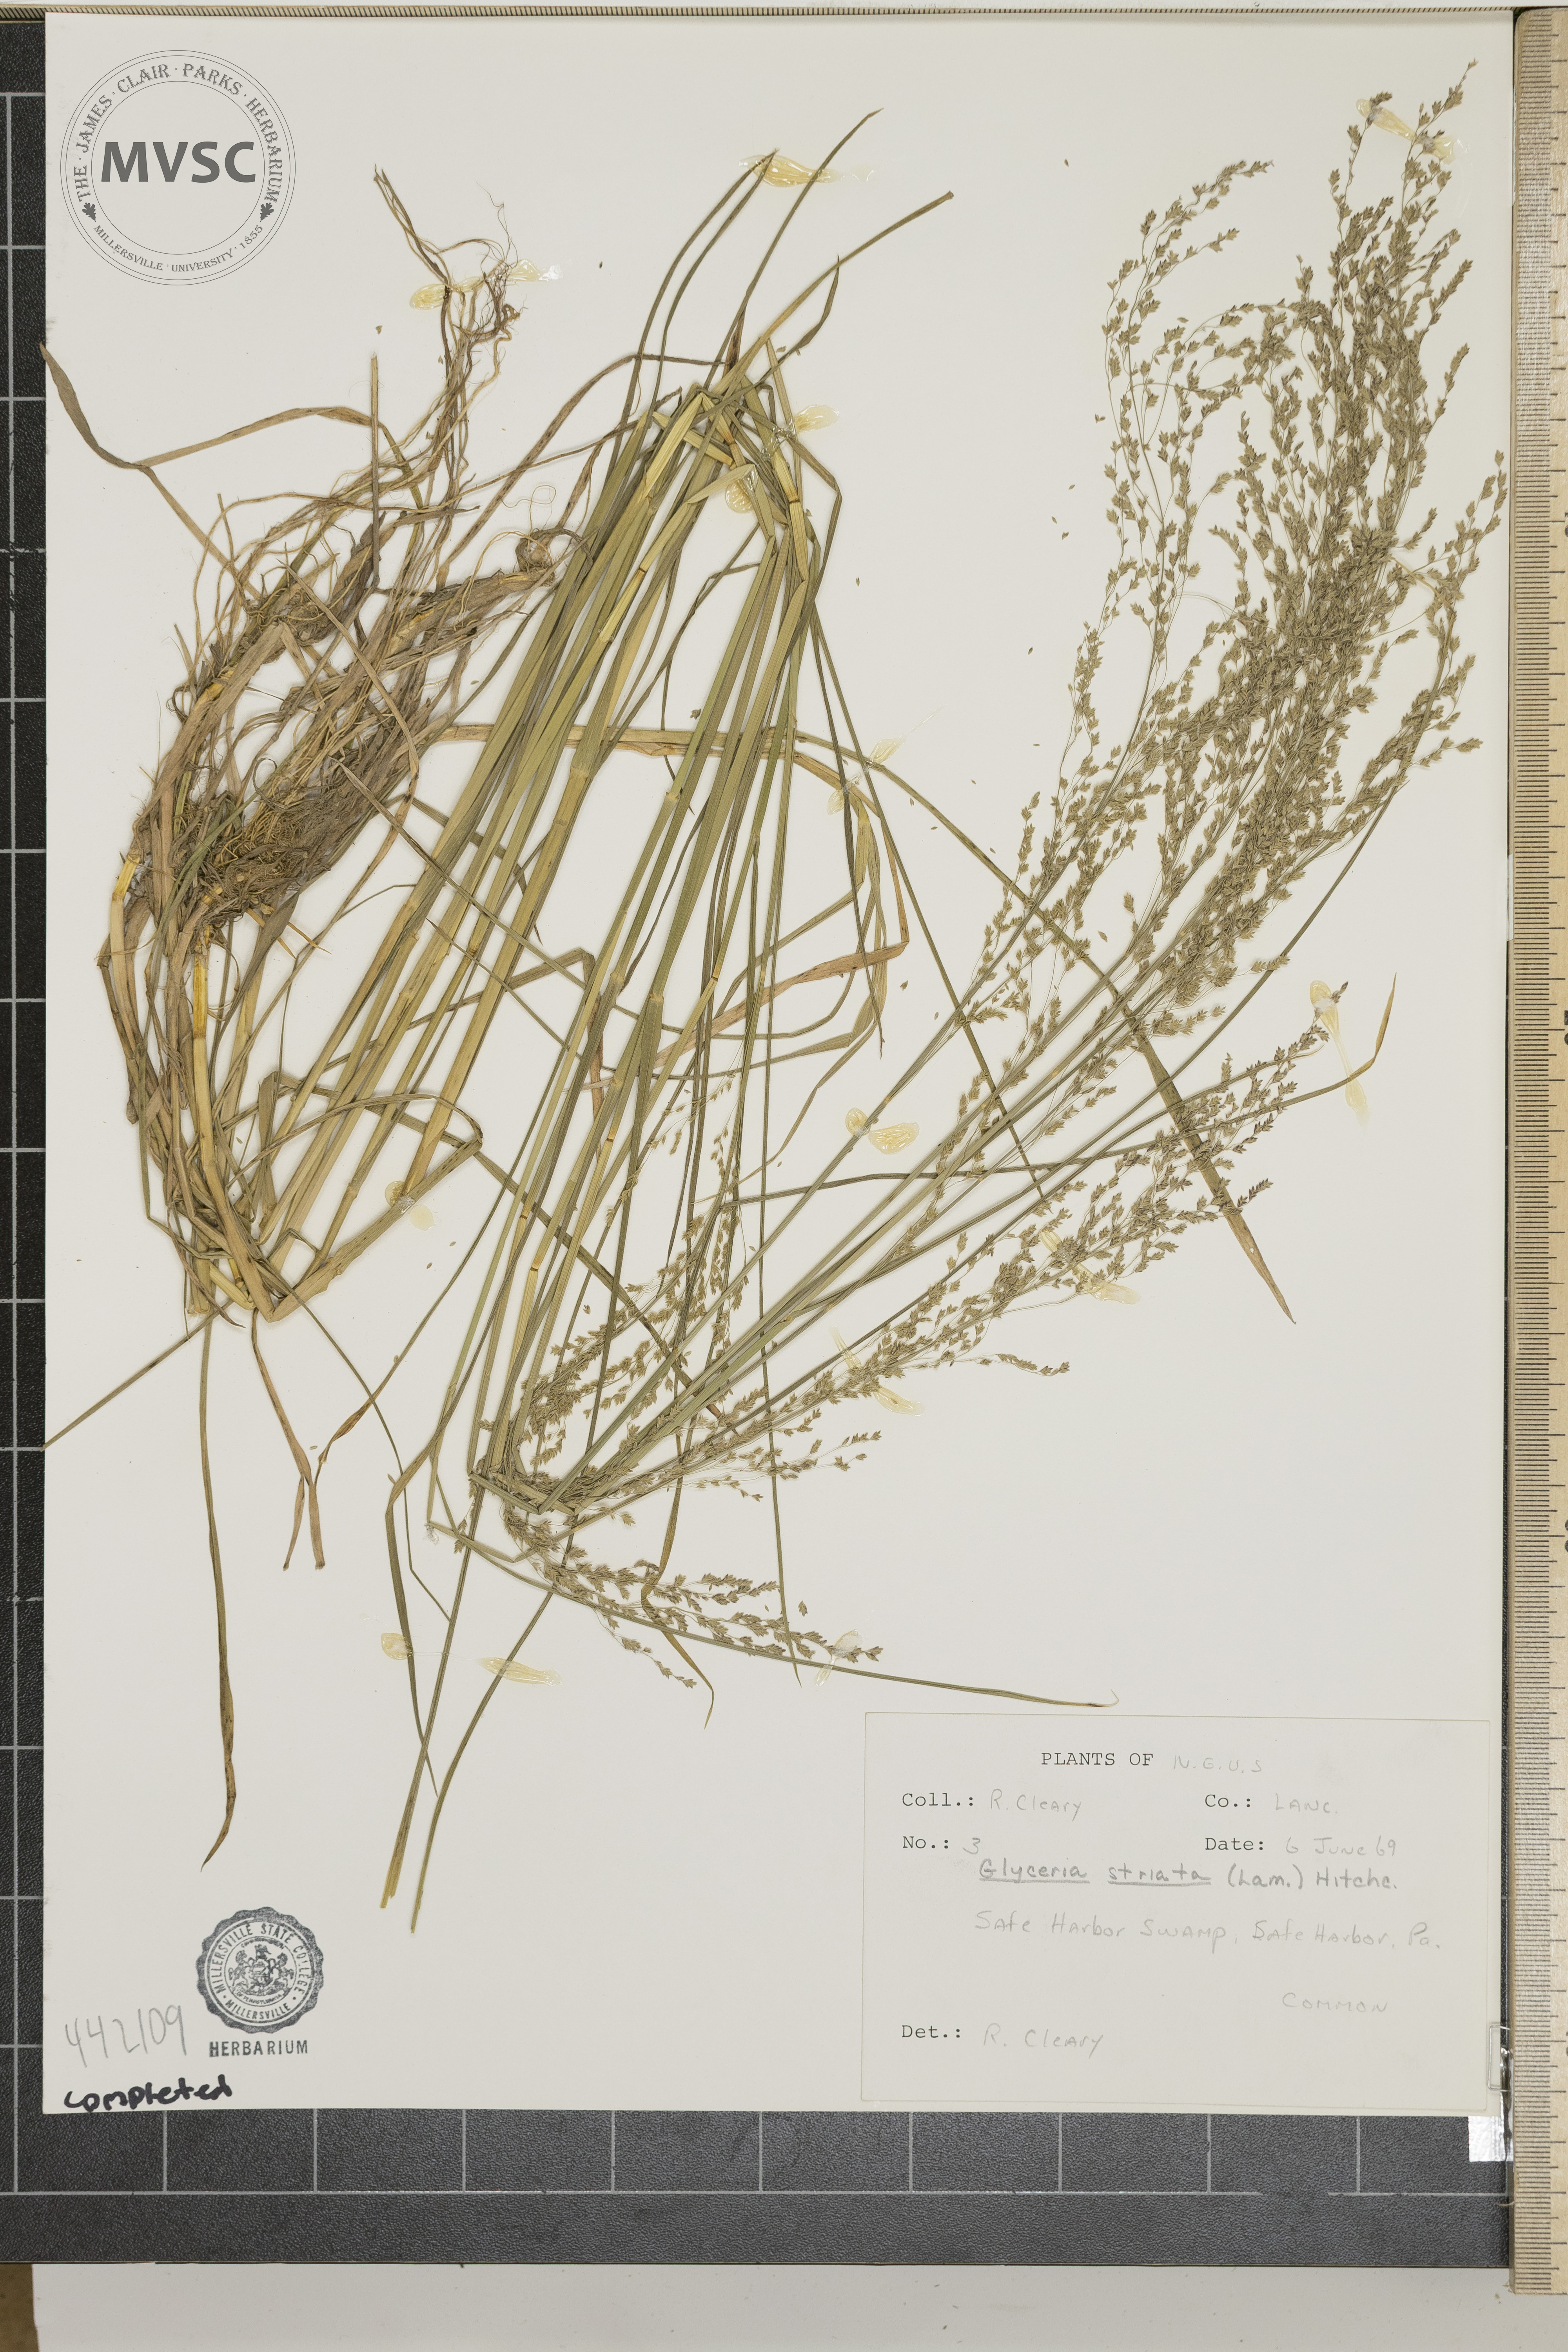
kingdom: Plantae
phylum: Tracheophyta
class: Liliopsida
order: Poales
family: Poaceae
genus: Glyceria
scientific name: Glyceria striata
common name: Fowl manna grass
